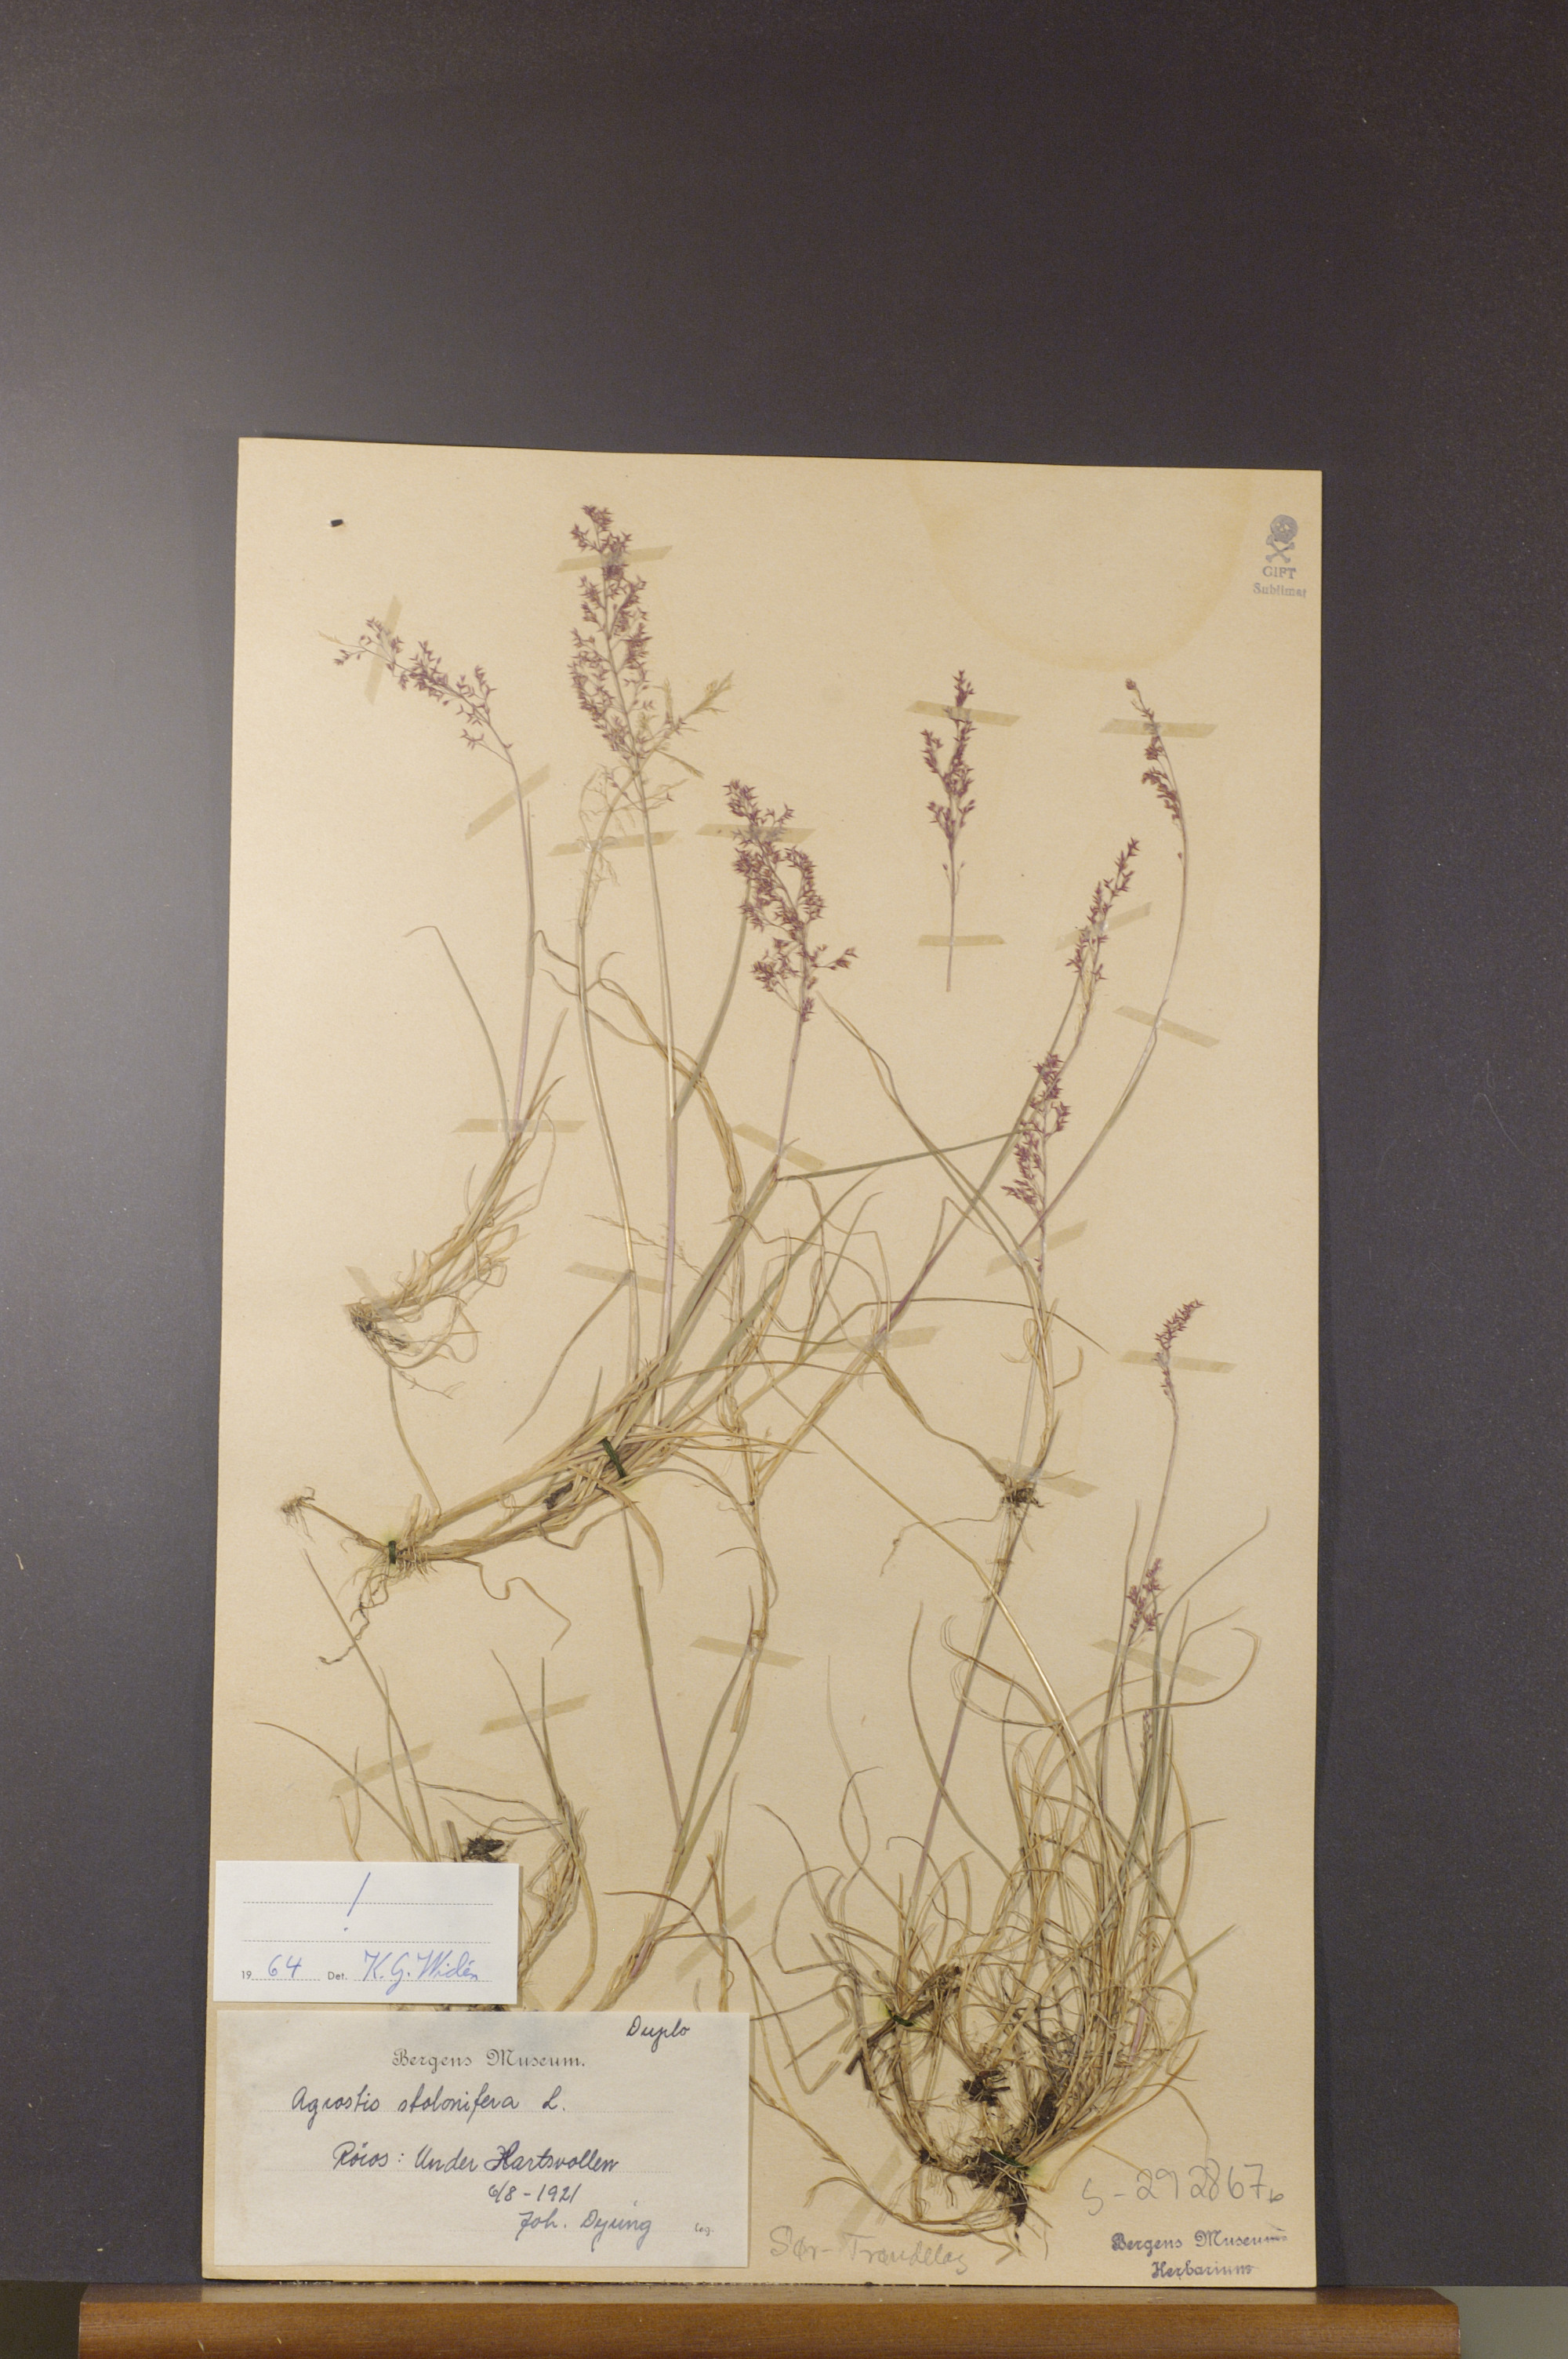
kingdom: Plantae
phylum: Tracheophyta
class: Liliopsida
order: Poales
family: Poaceae
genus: Agrostis
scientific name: Agrostis stolonifera
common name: Creeping bentgrass
